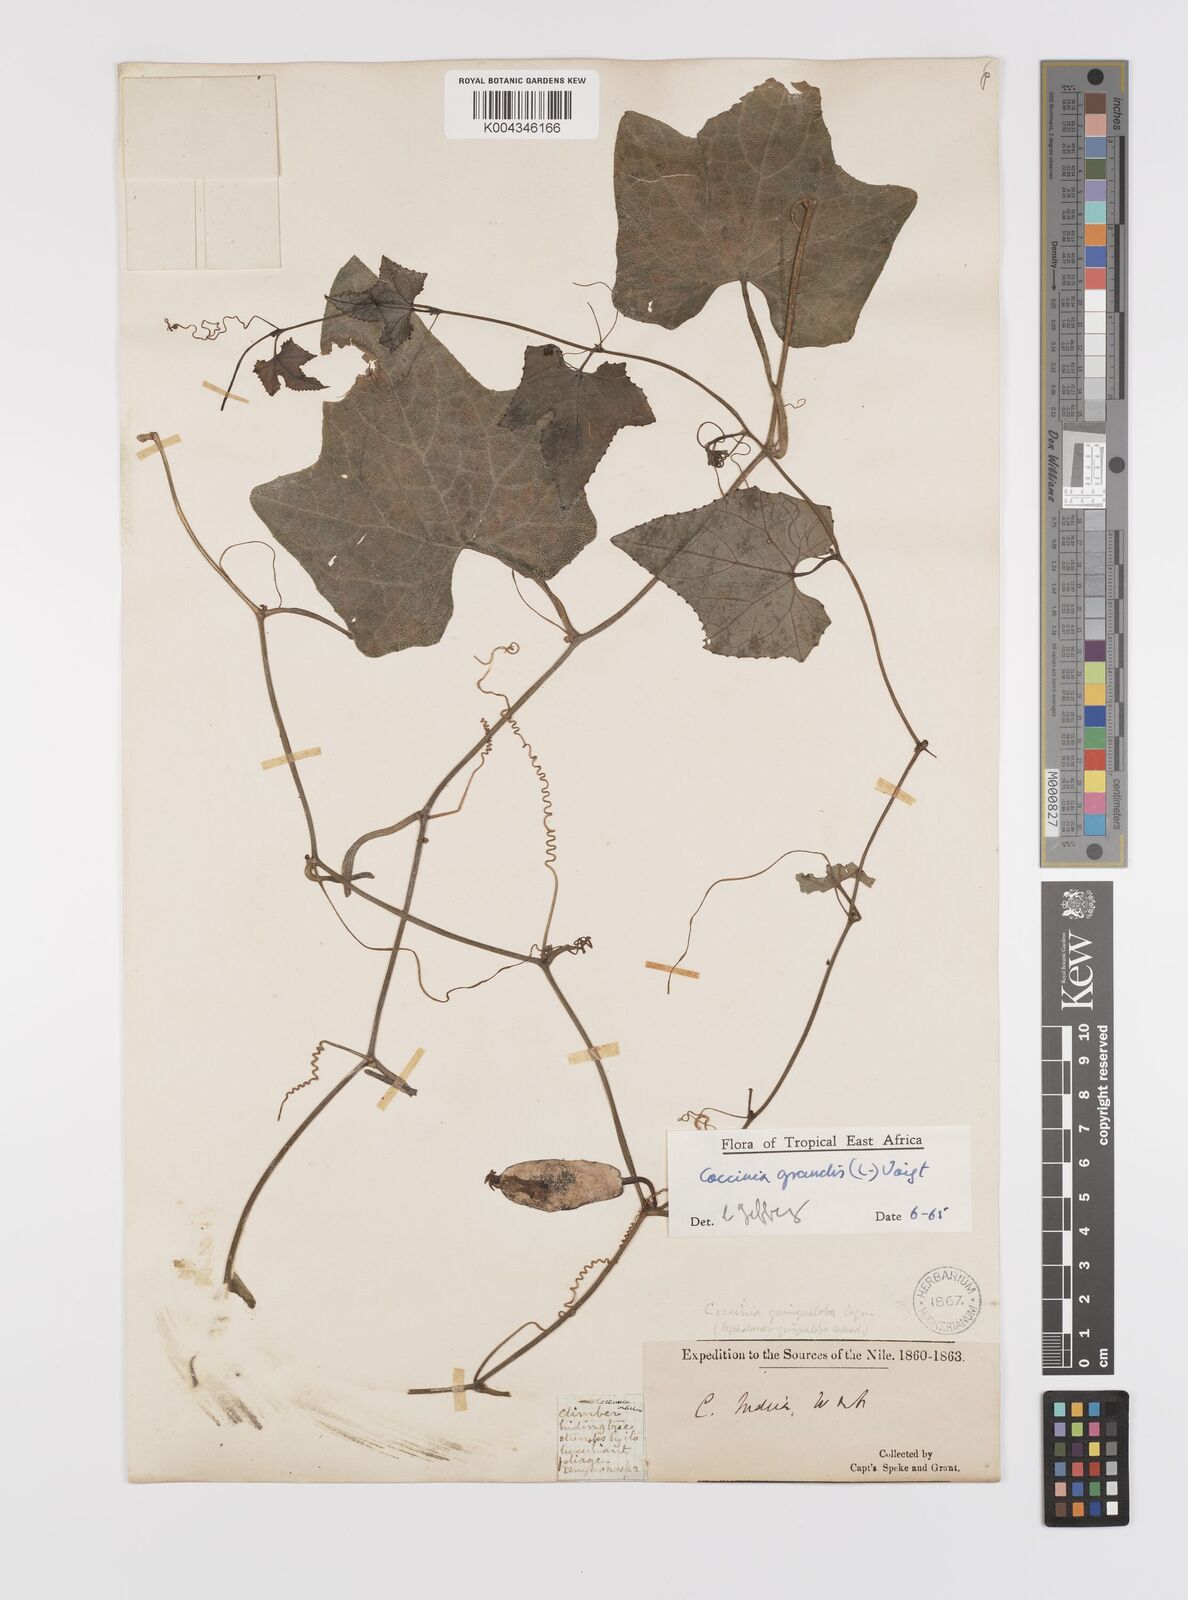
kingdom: Plantae
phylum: Tracheophyta
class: Magnoliopsida
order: Cucurbitales
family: Cucurbitaceae
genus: Coccinia
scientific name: Coccinia grandis
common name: Ivy gourd
